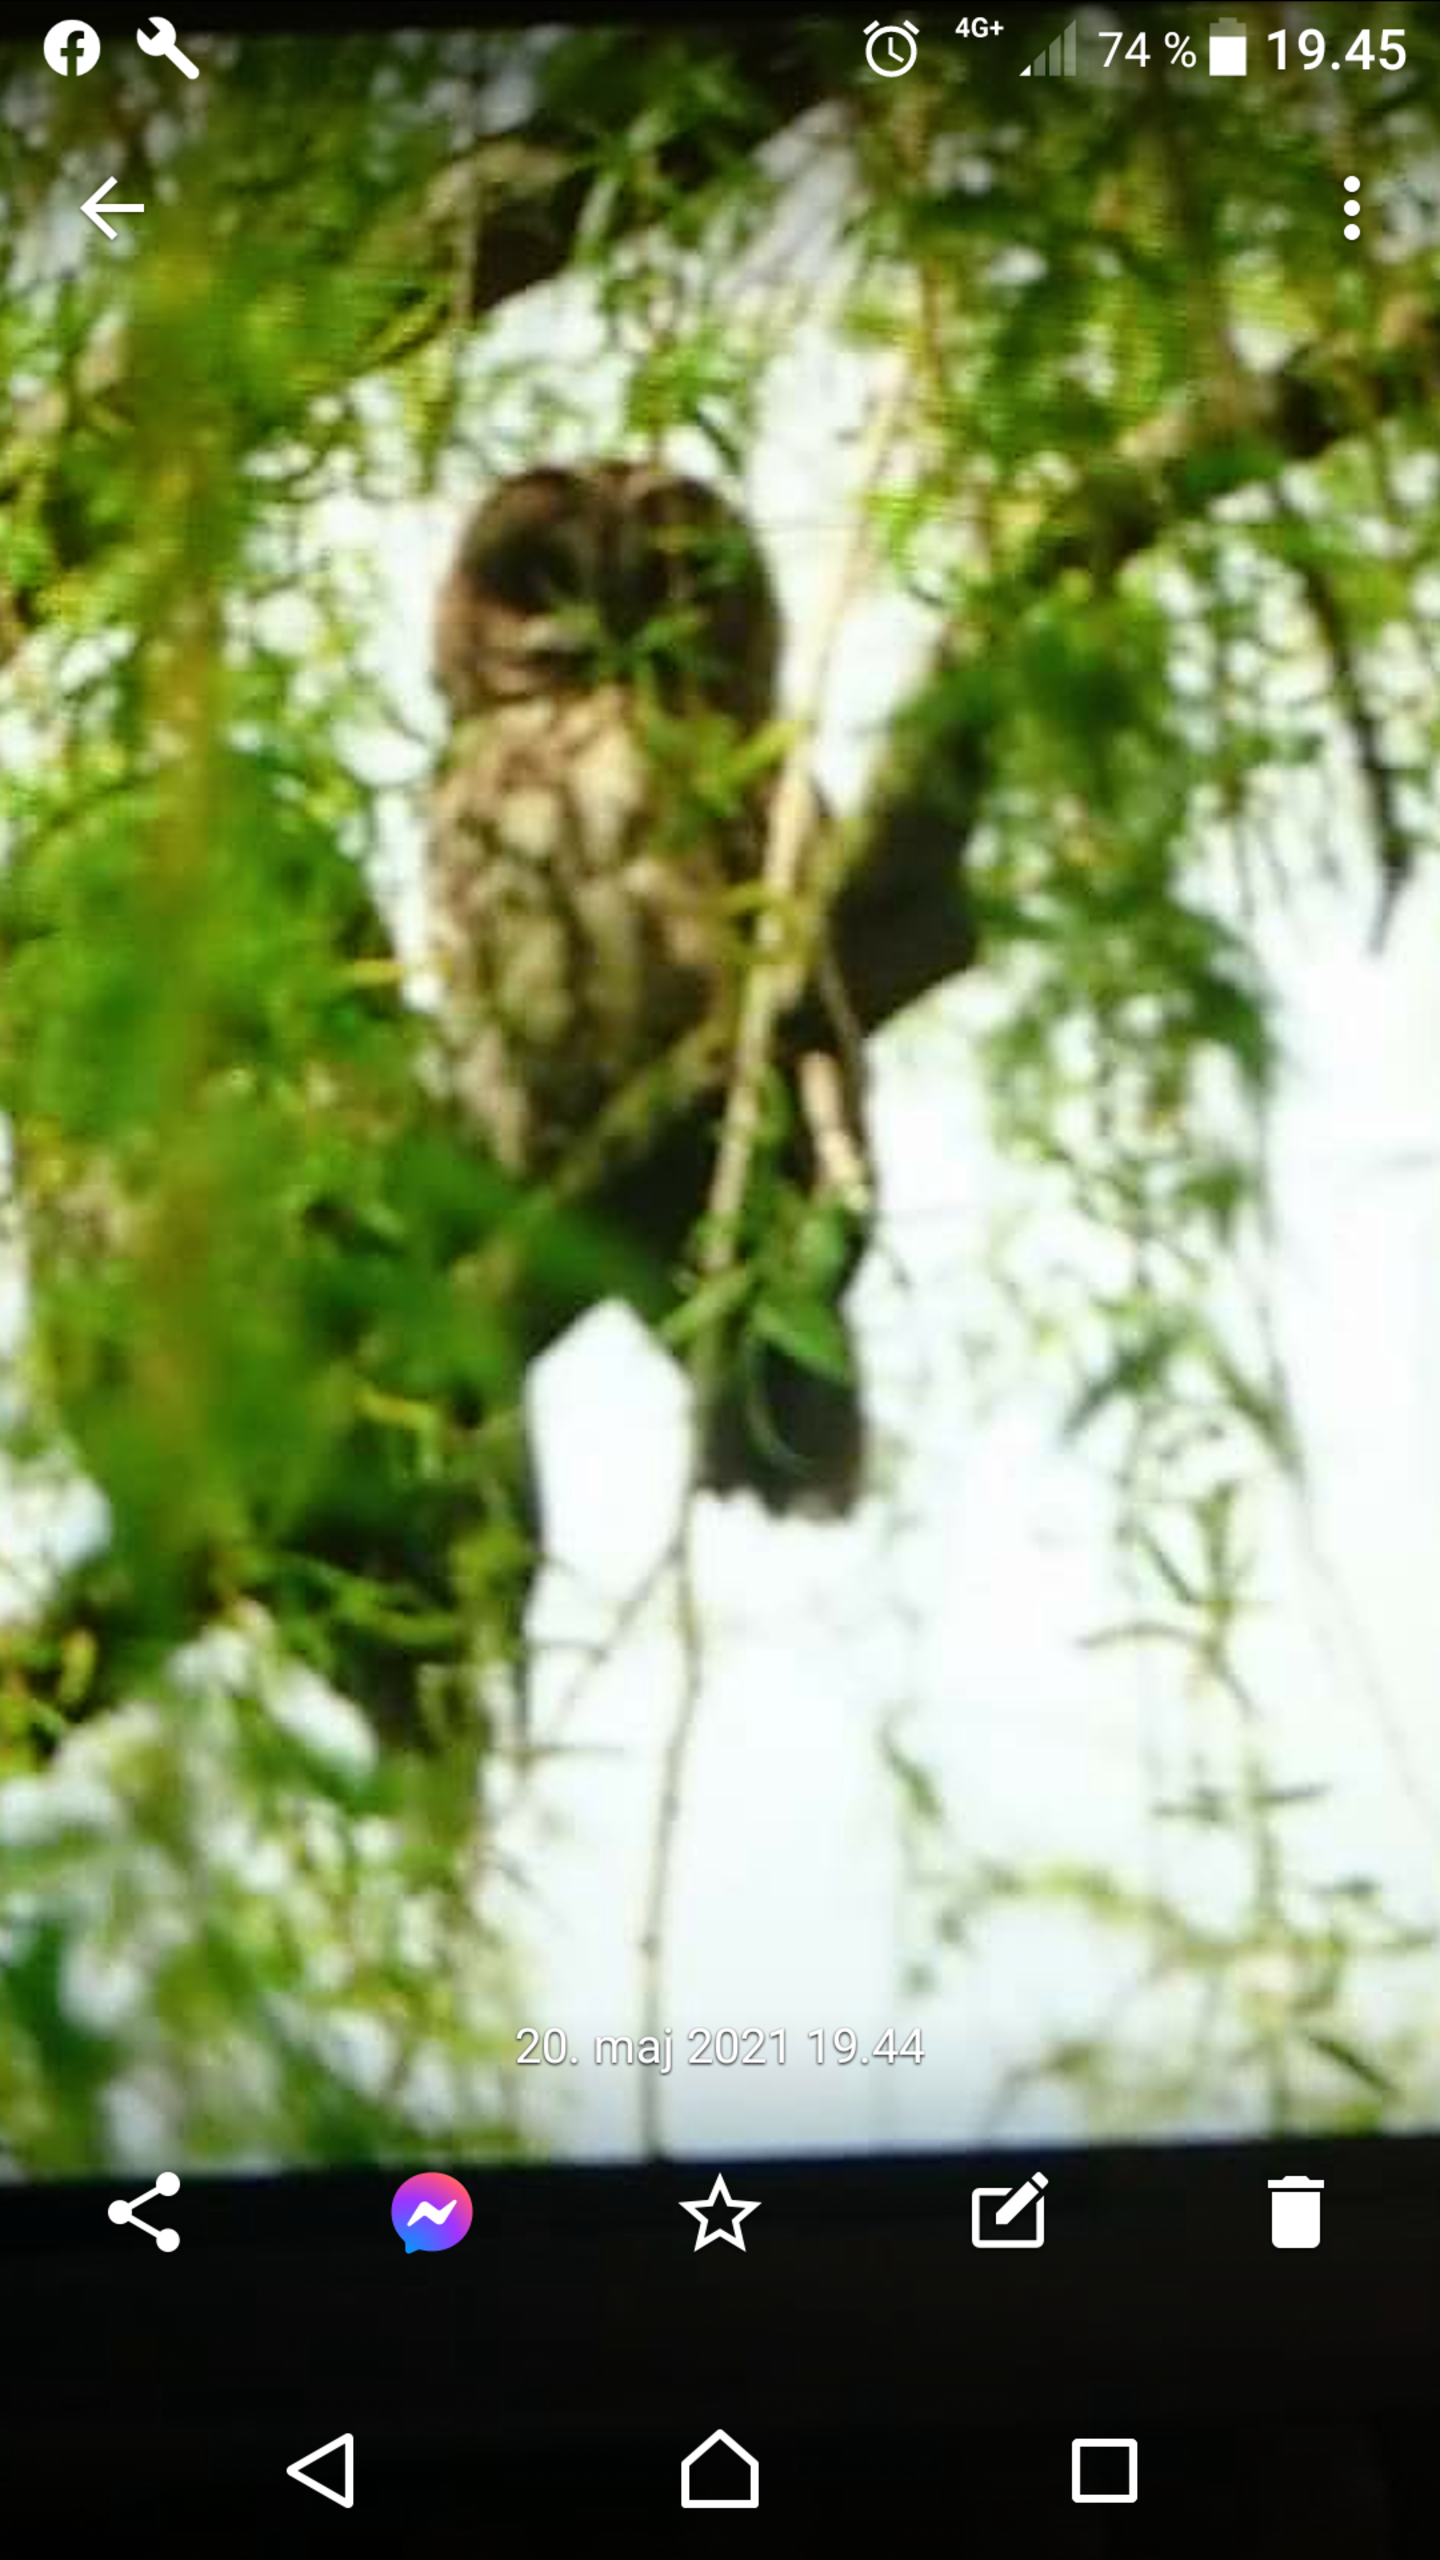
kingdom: Animalia
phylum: Chordata
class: Aves
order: Strigiformes
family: Strigidae
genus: Strix
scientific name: Strix aluco
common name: Natugle
